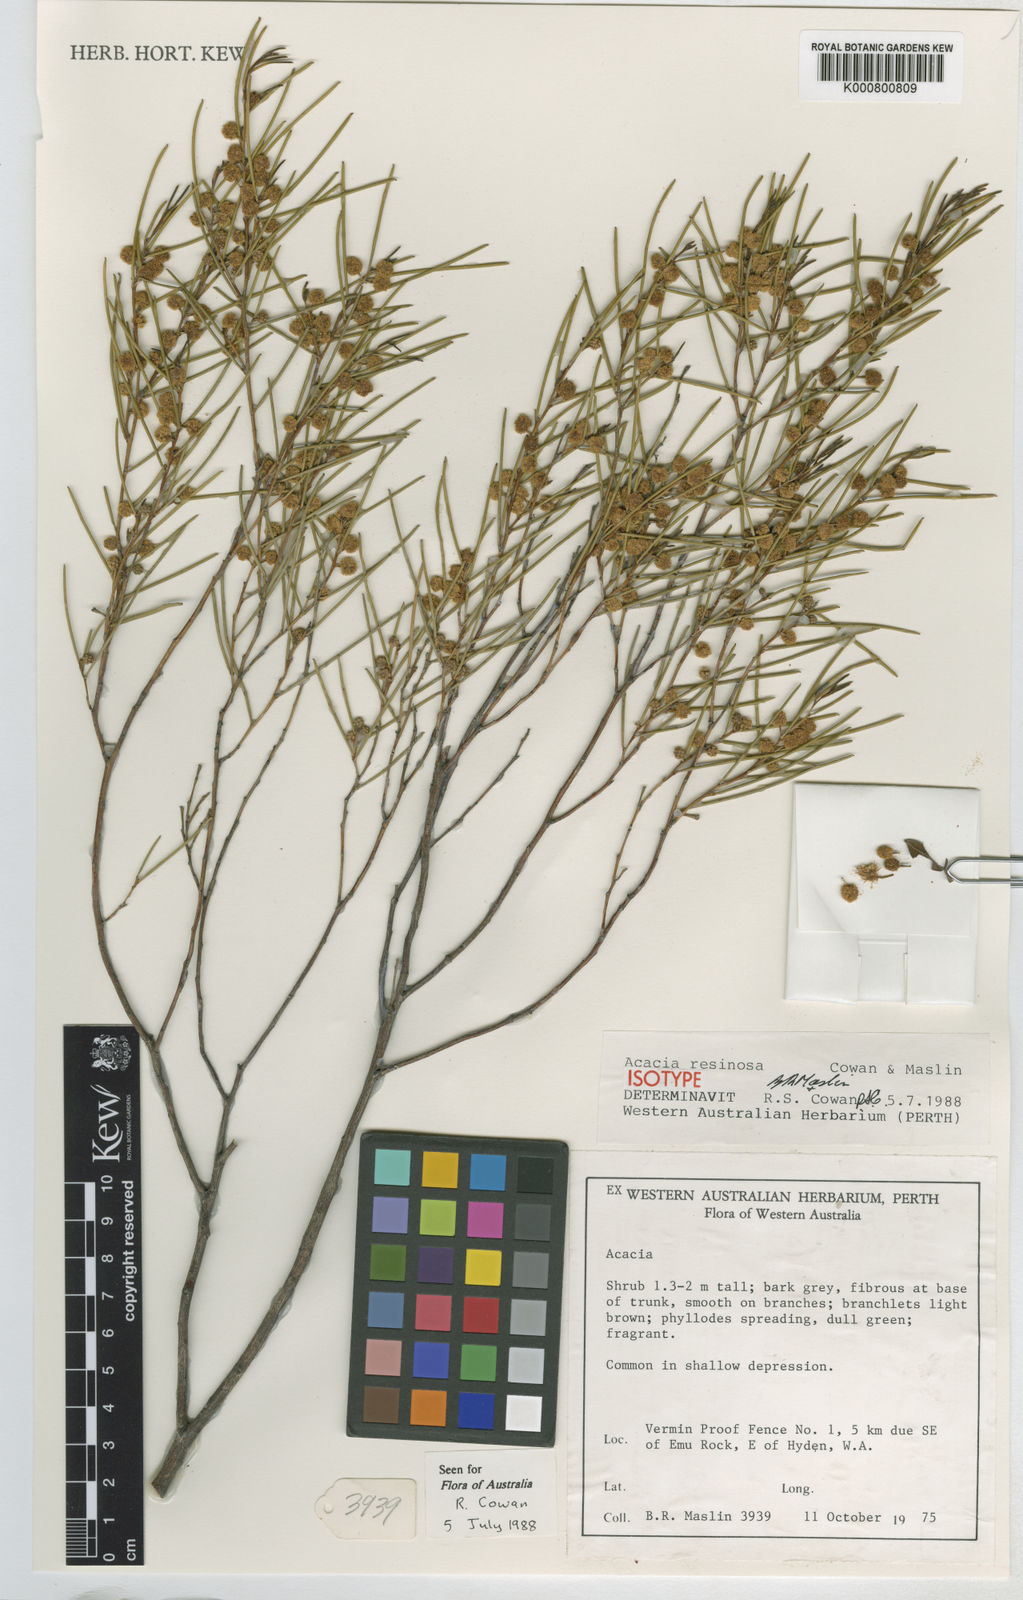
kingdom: Plantae
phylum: Tracheophyta
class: Magnoliopsida
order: Fabales
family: Fabaceae
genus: Acacia
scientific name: Acacia resinosa
